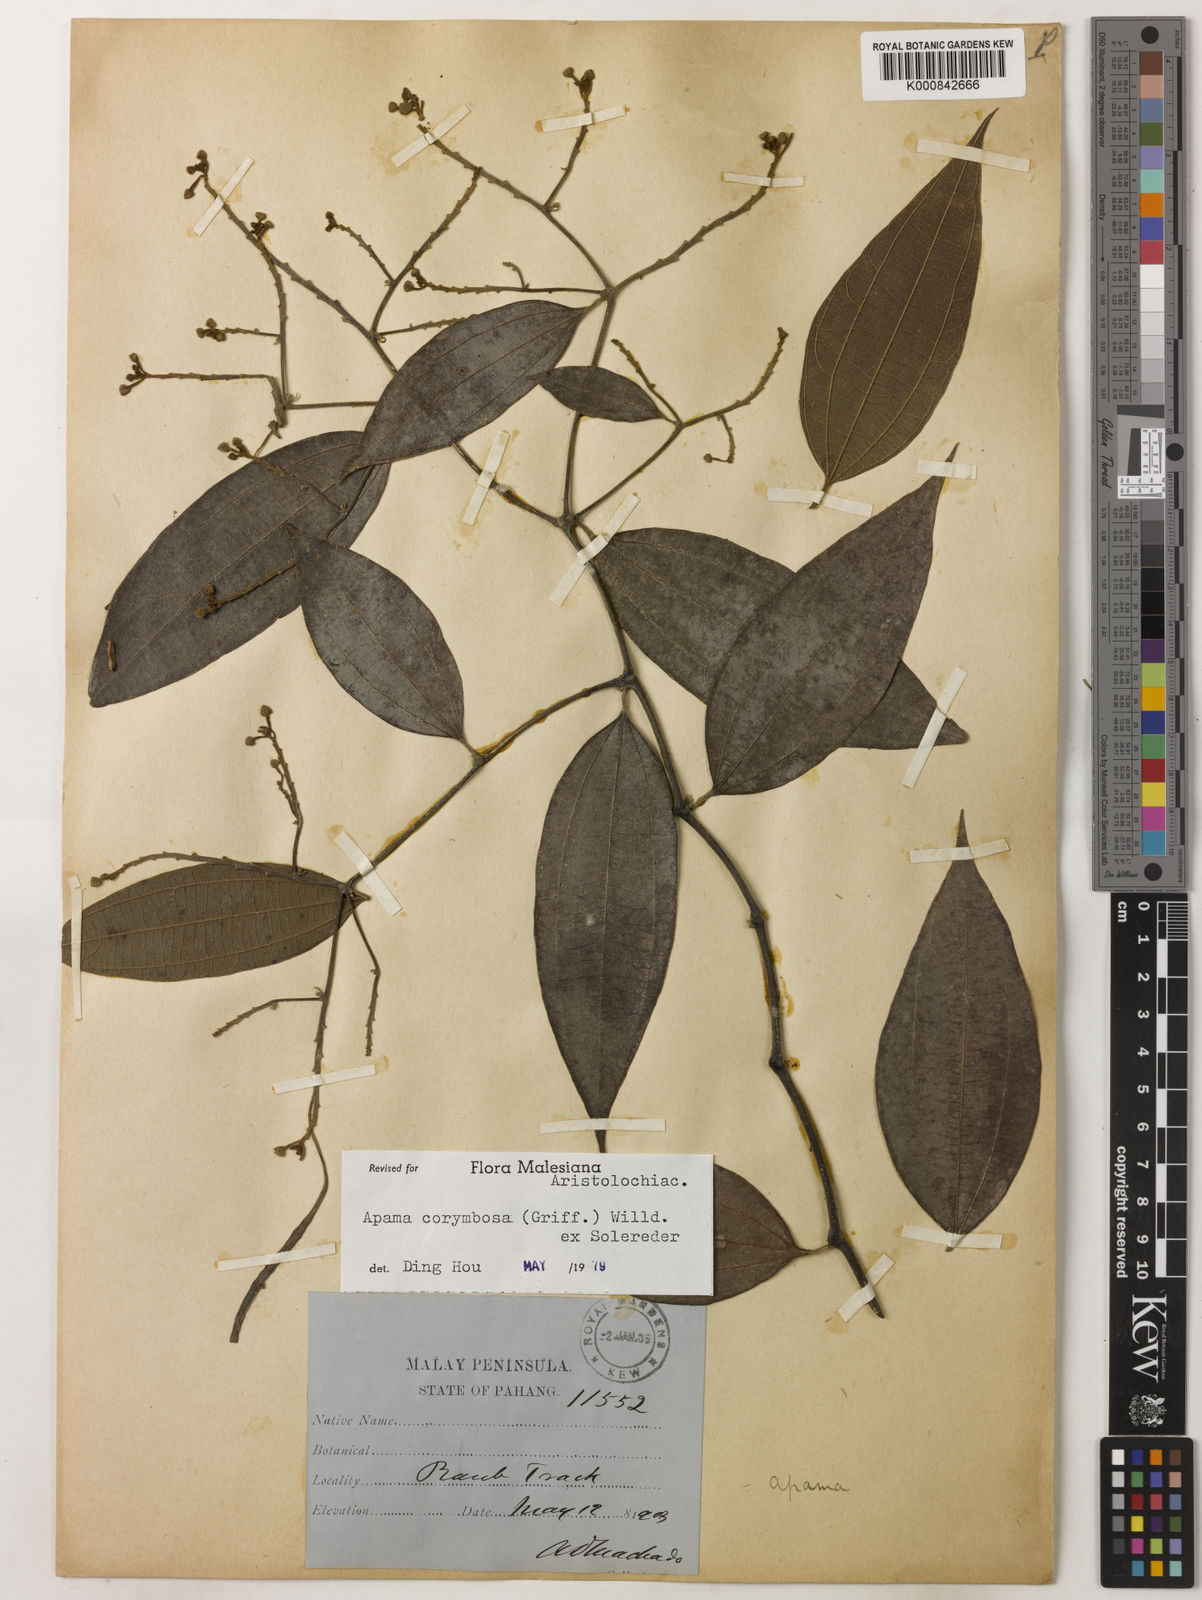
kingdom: Plantae
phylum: Tracheophyta
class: Magnoliopsida
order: Piperales
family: Aristolochiaceae
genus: Thottea
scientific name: Thottea piperiformis
